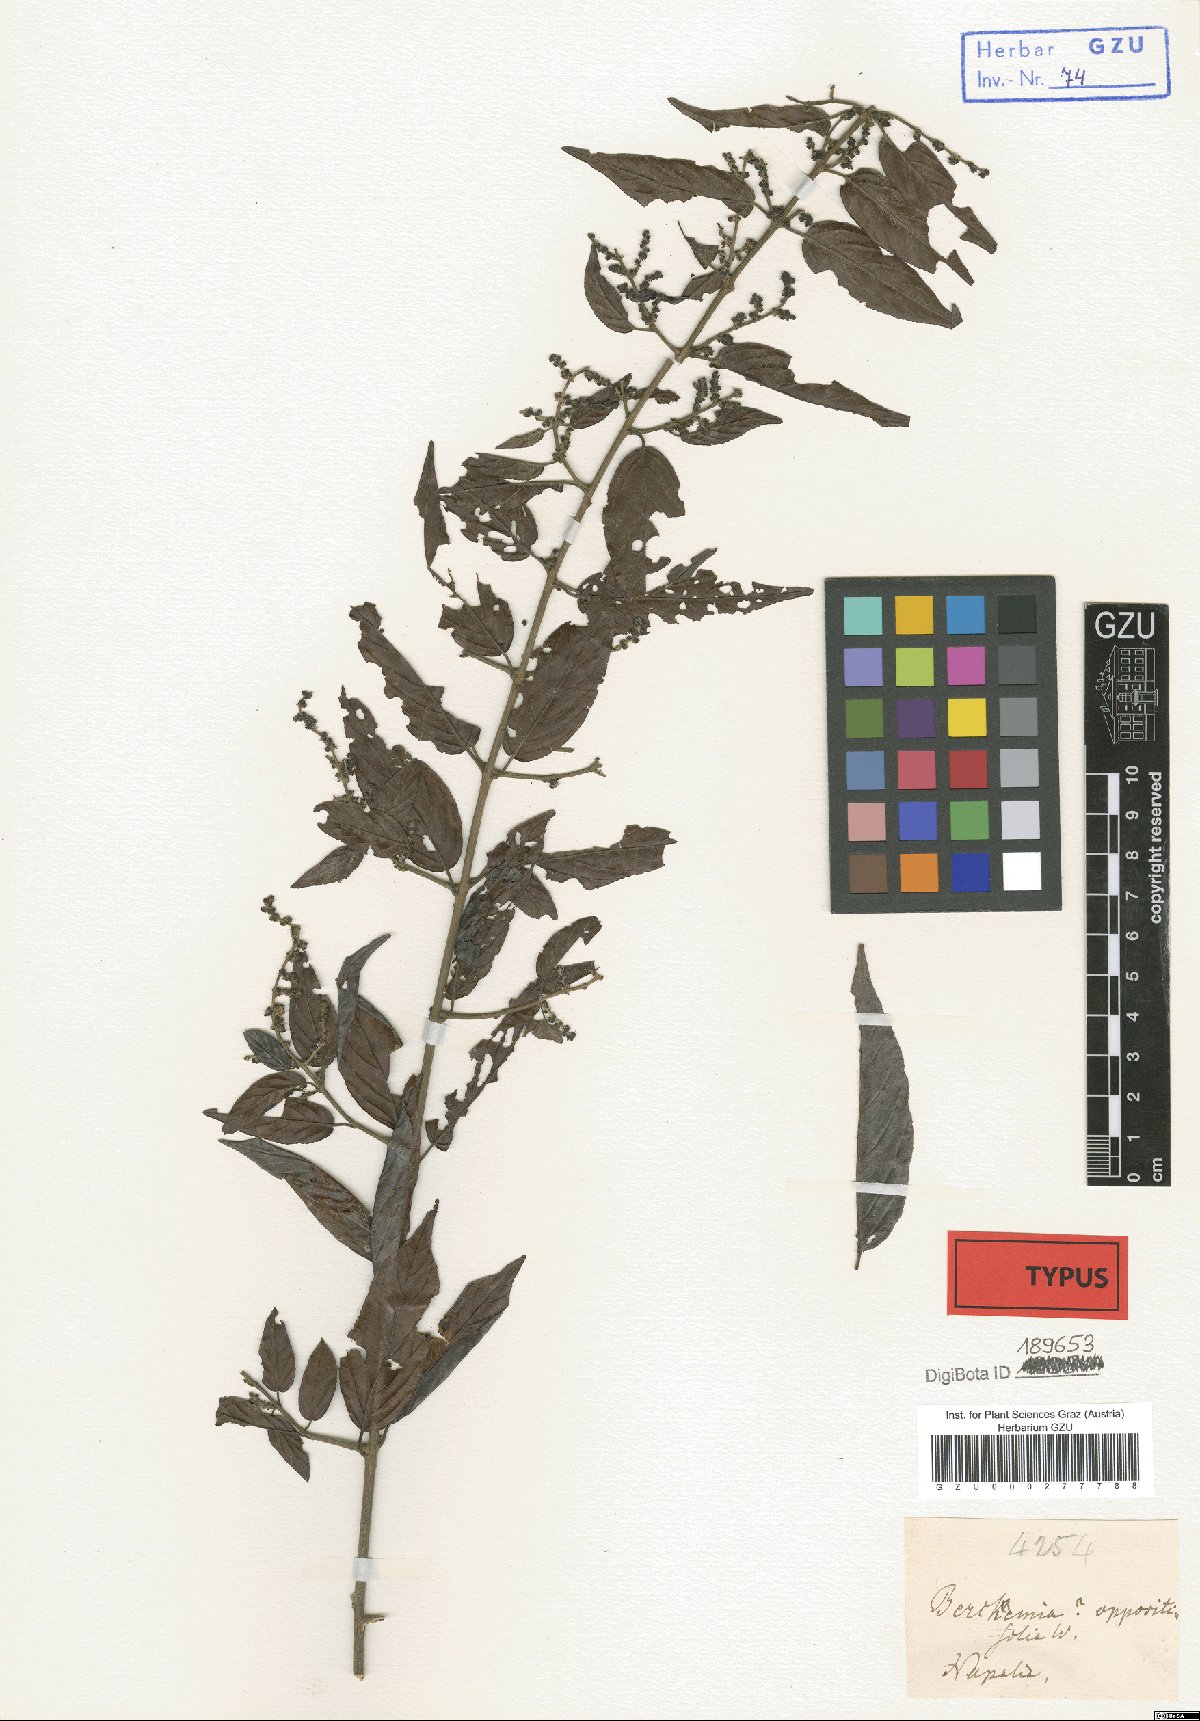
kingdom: Plantae
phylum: Tracheophyta
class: Magnoliopsida
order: Rosales
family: Rhamnaceae
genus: Sageretia
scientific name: Sageretia filiformis
